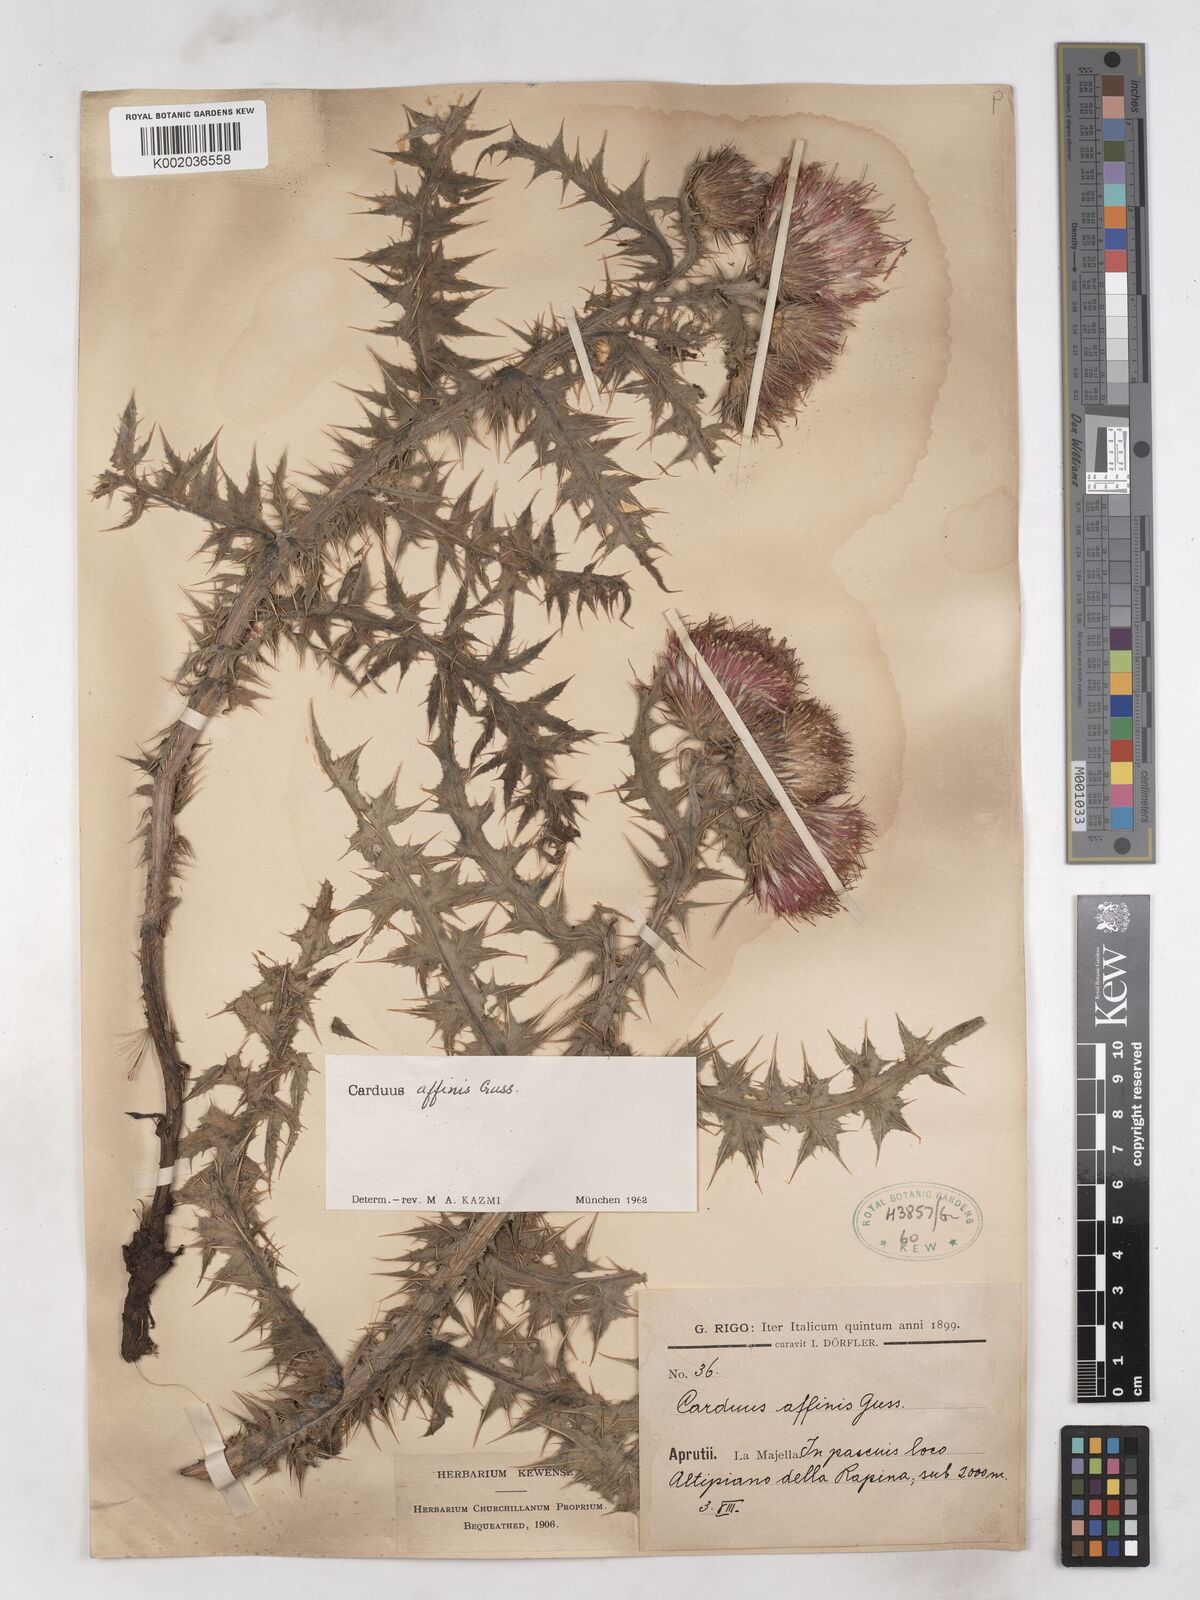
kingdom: Plantae
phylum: Tracheophyta
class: Magnoliopsida
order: Asterales
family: Asteraceae
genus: Carduus
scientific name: Carduus affinis
